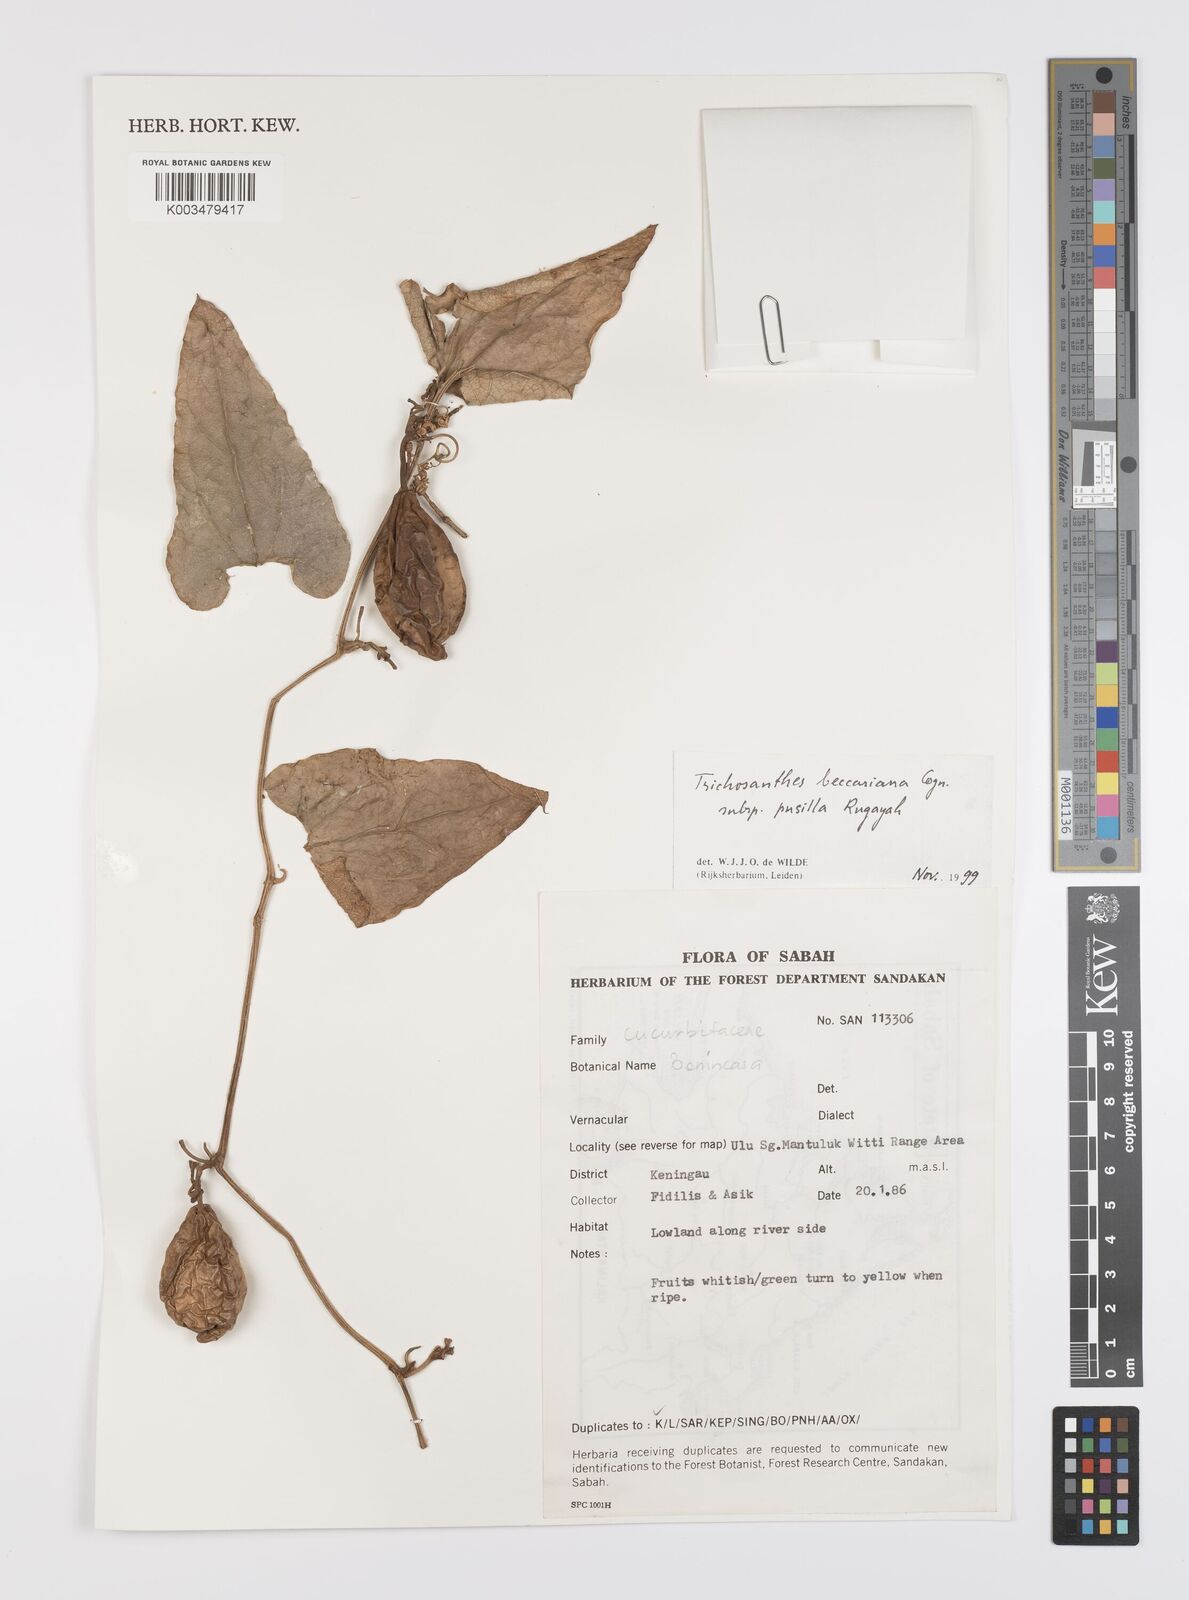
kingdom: Plantae
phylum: Tracheophyta
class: Magnoliopsida
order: Cucurbitales
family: Cucurbitaceae
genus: Trichosanthes
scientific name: Trichosanthes beccariana
